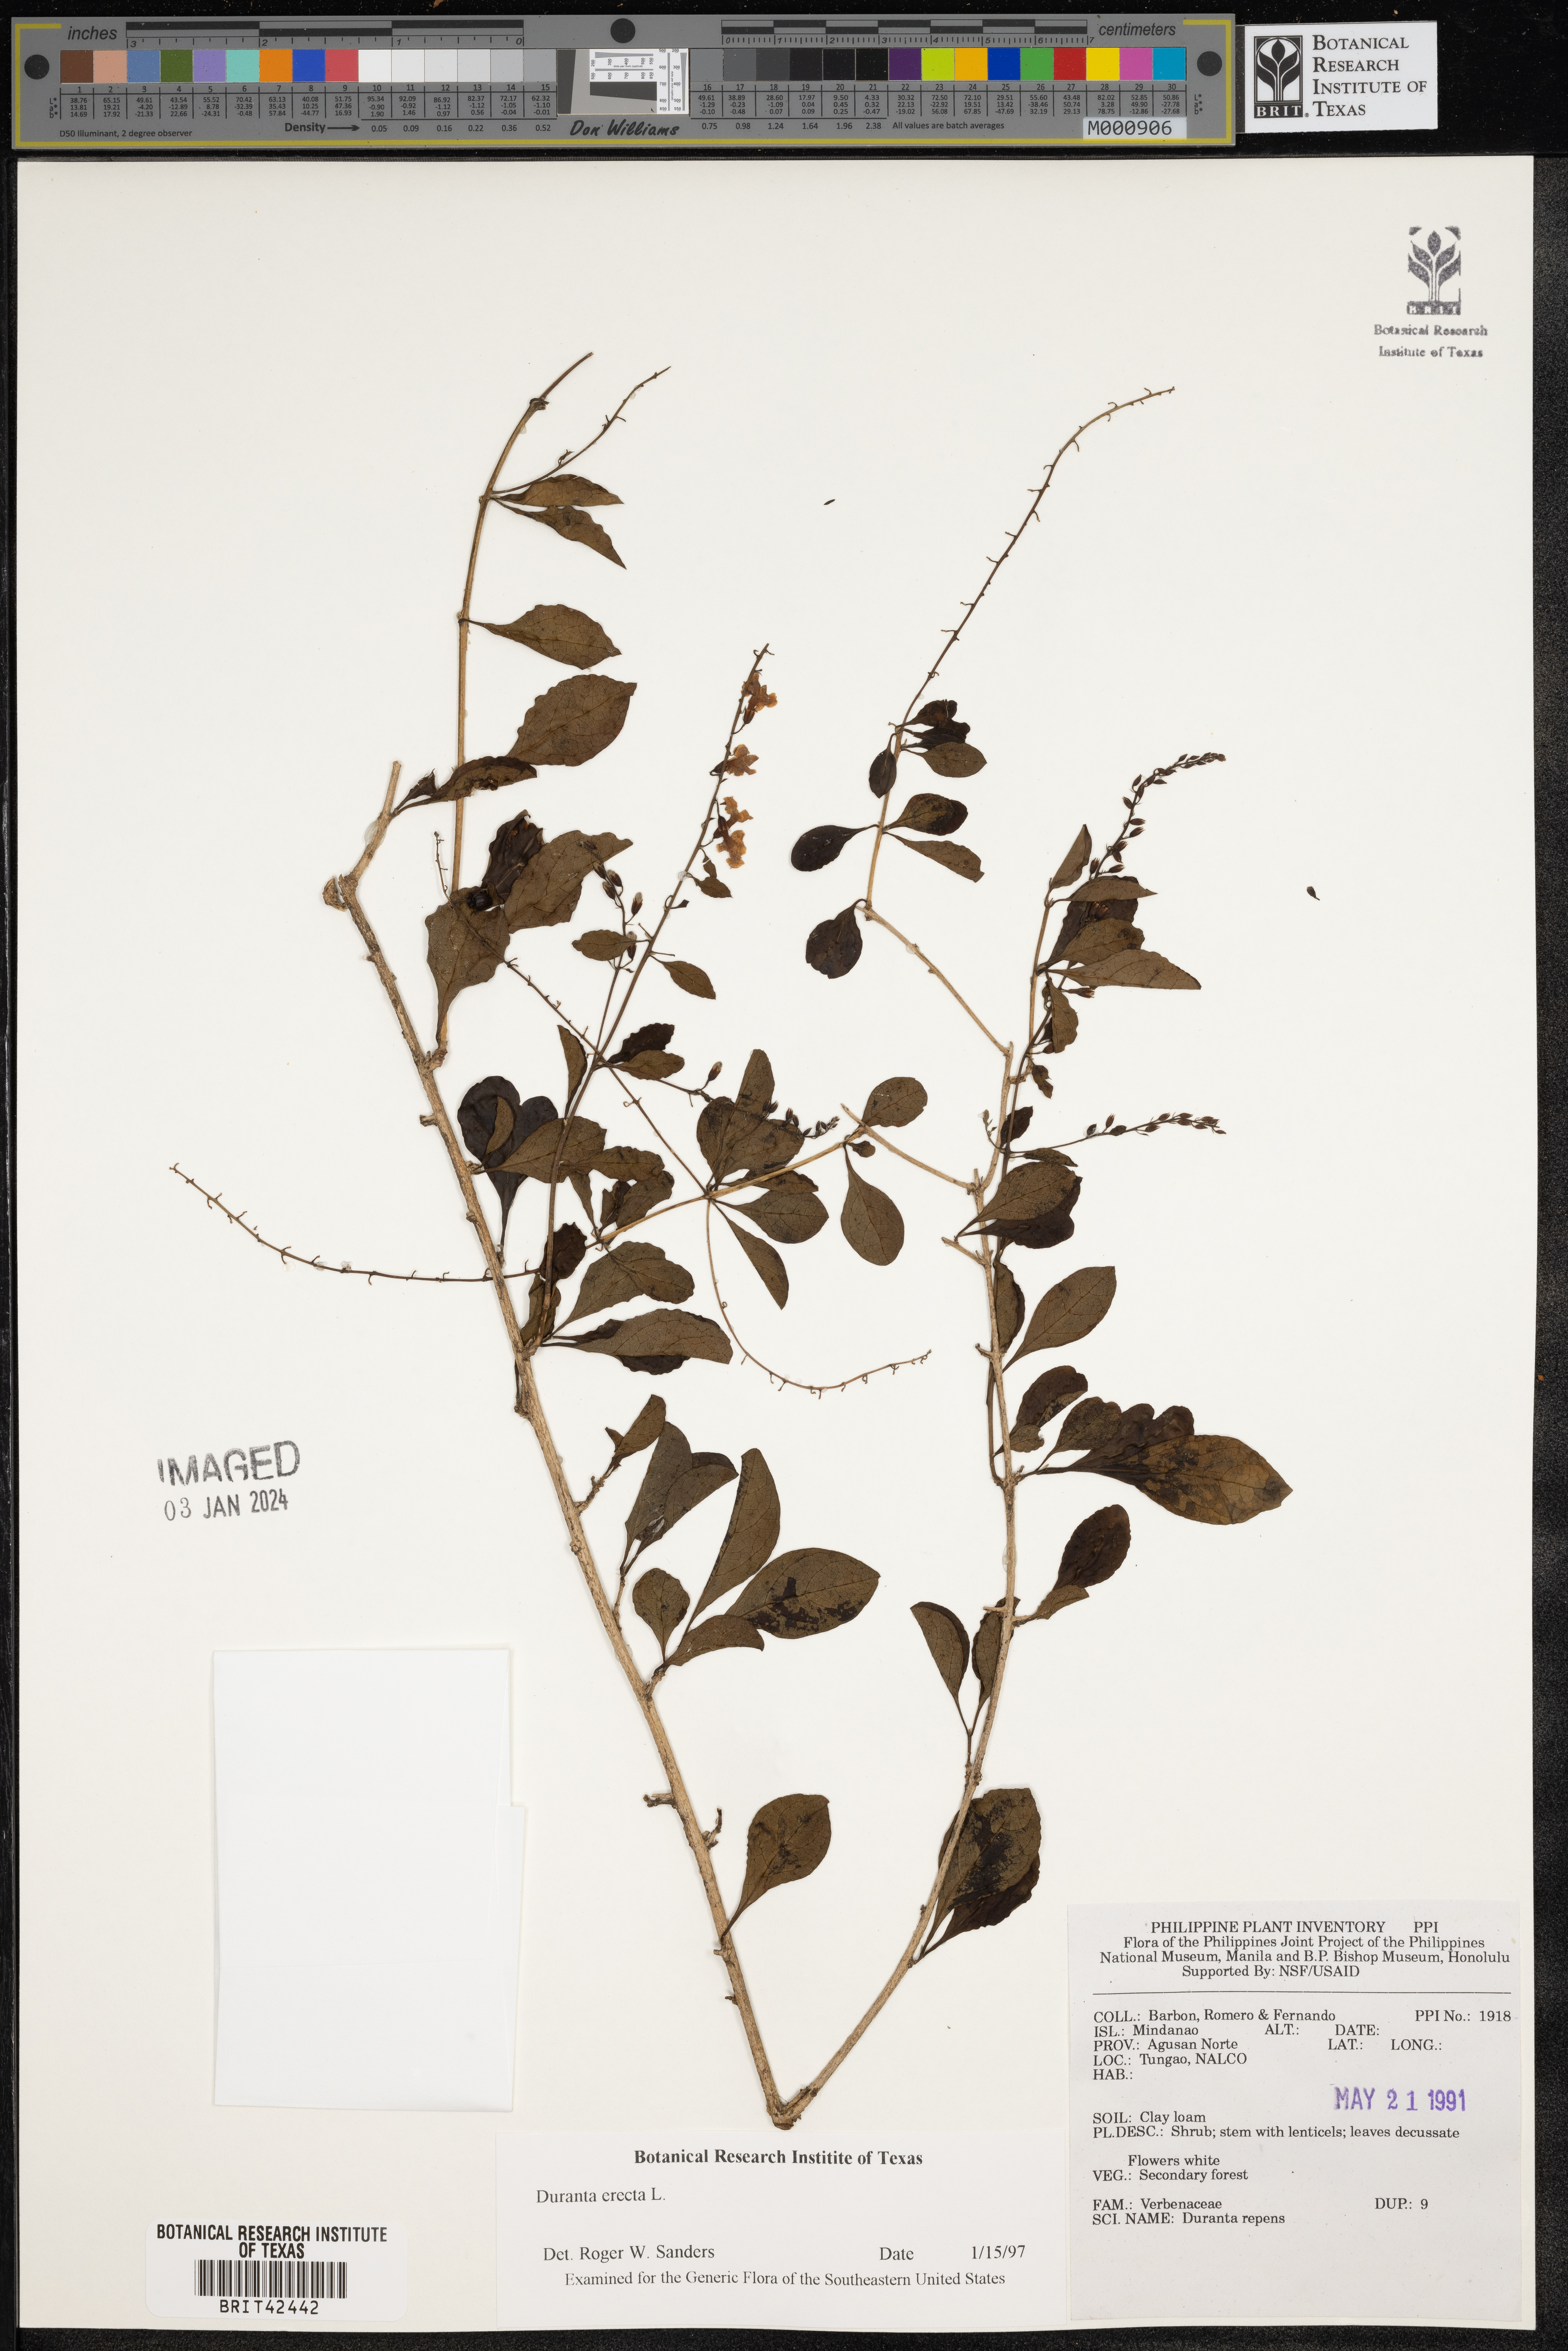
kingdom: Plantae
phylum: Tracheophyta
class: Magnoliopsida
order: Lamiales
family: Verbenaceae
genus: Duranta
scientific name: Duranta erecta
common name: Golden dewdrops
